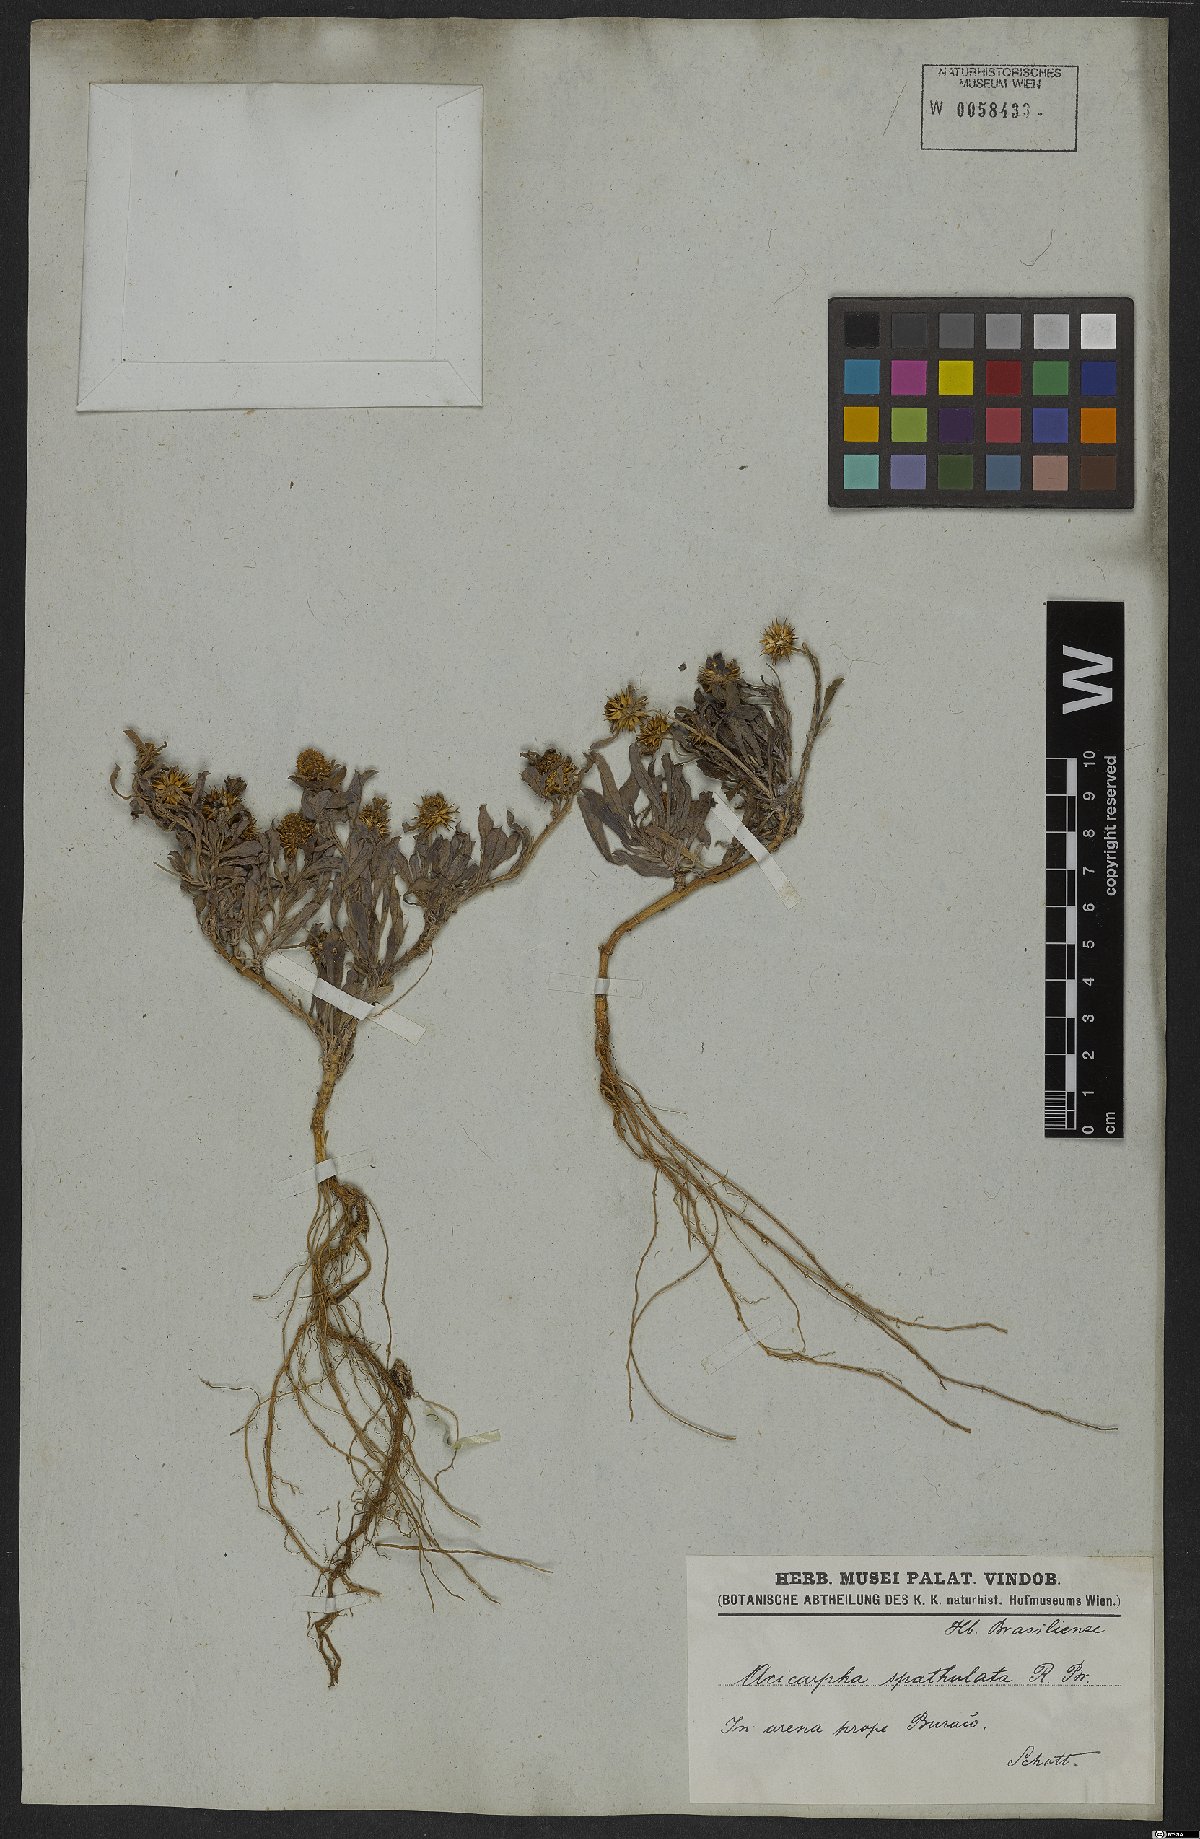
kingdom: Plantae
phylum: Tracheophyta
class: Magnoliopsida
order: Asterales
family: Calyceraceae
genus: Acicarpha
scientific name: Acicarpha spathulata
